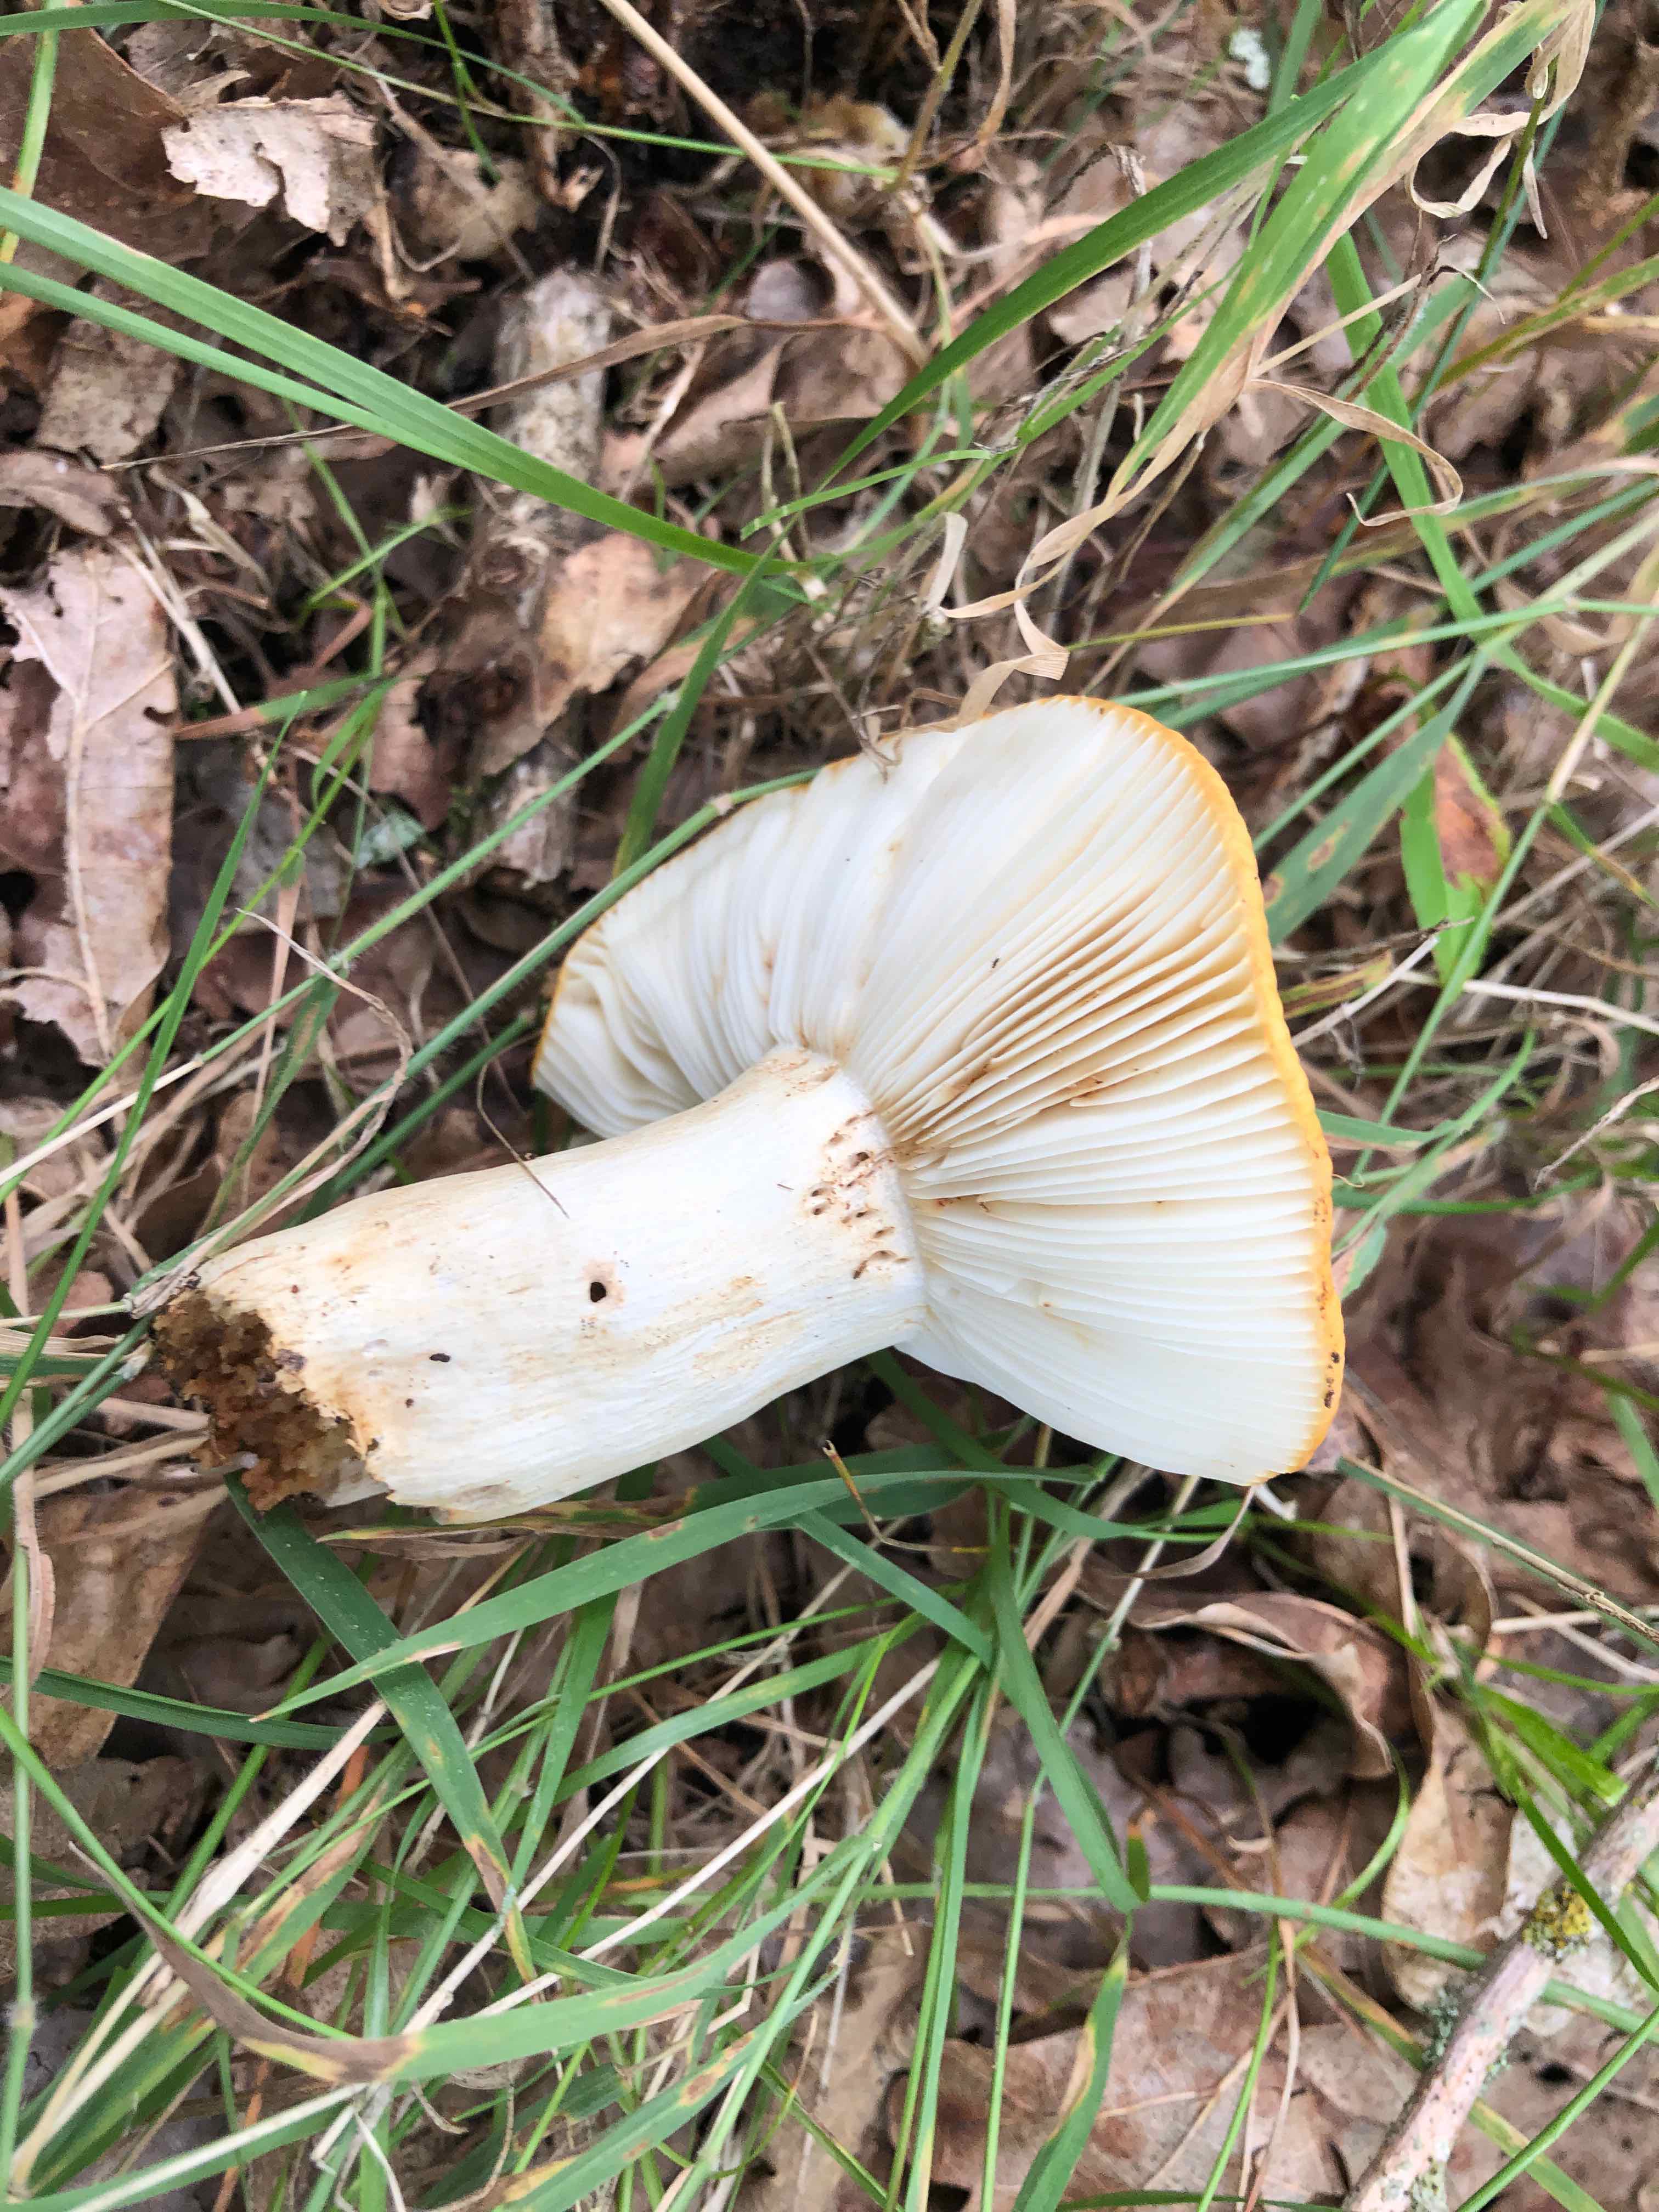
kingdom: Fungi
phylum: Basidiomycota
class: Agaricomycetes
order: Russulales
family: Russulaceae
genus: Russula
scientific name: Russula ochroleuca
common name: okkergul skørhat
